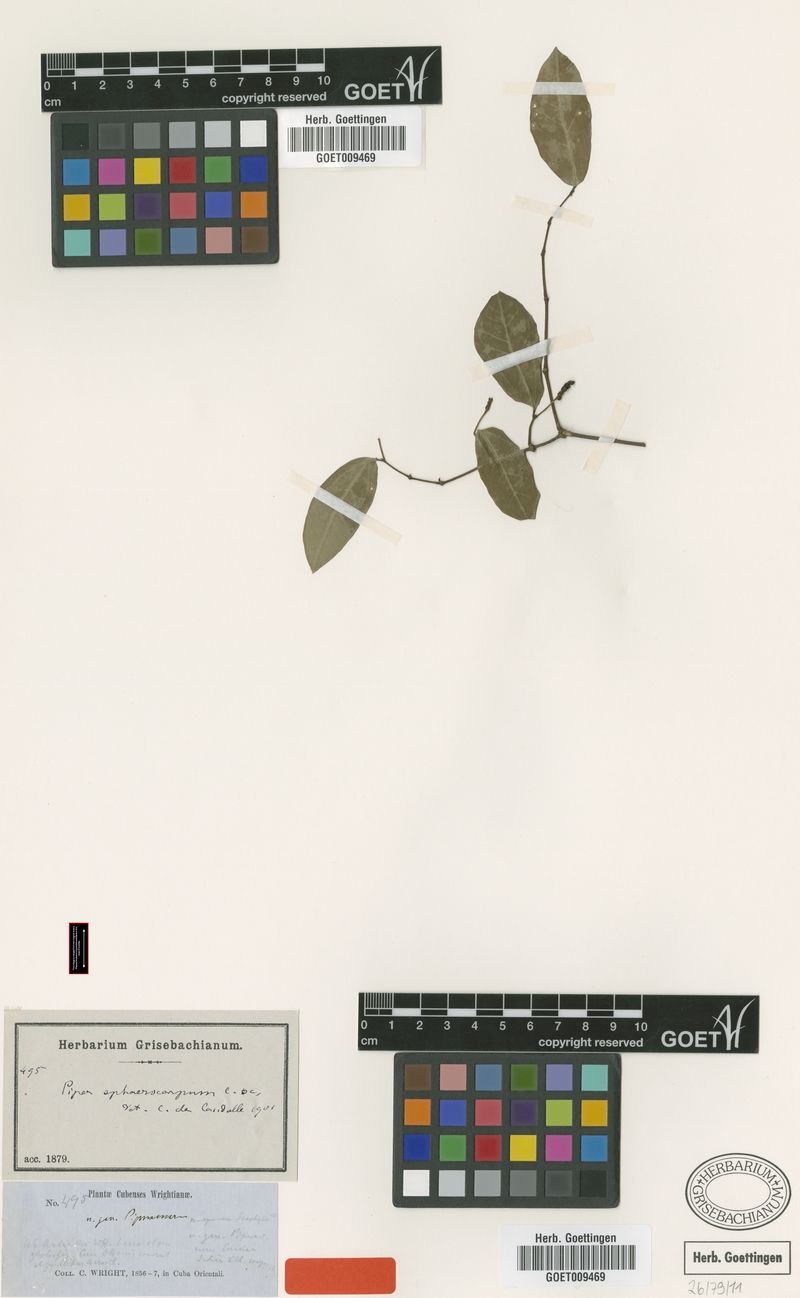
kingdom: Plantae
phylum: Tracheophyta
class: Magnoliopsida
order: Piperales
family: Piperaceae
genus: Piper
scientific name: Piper sphaerocarpum
